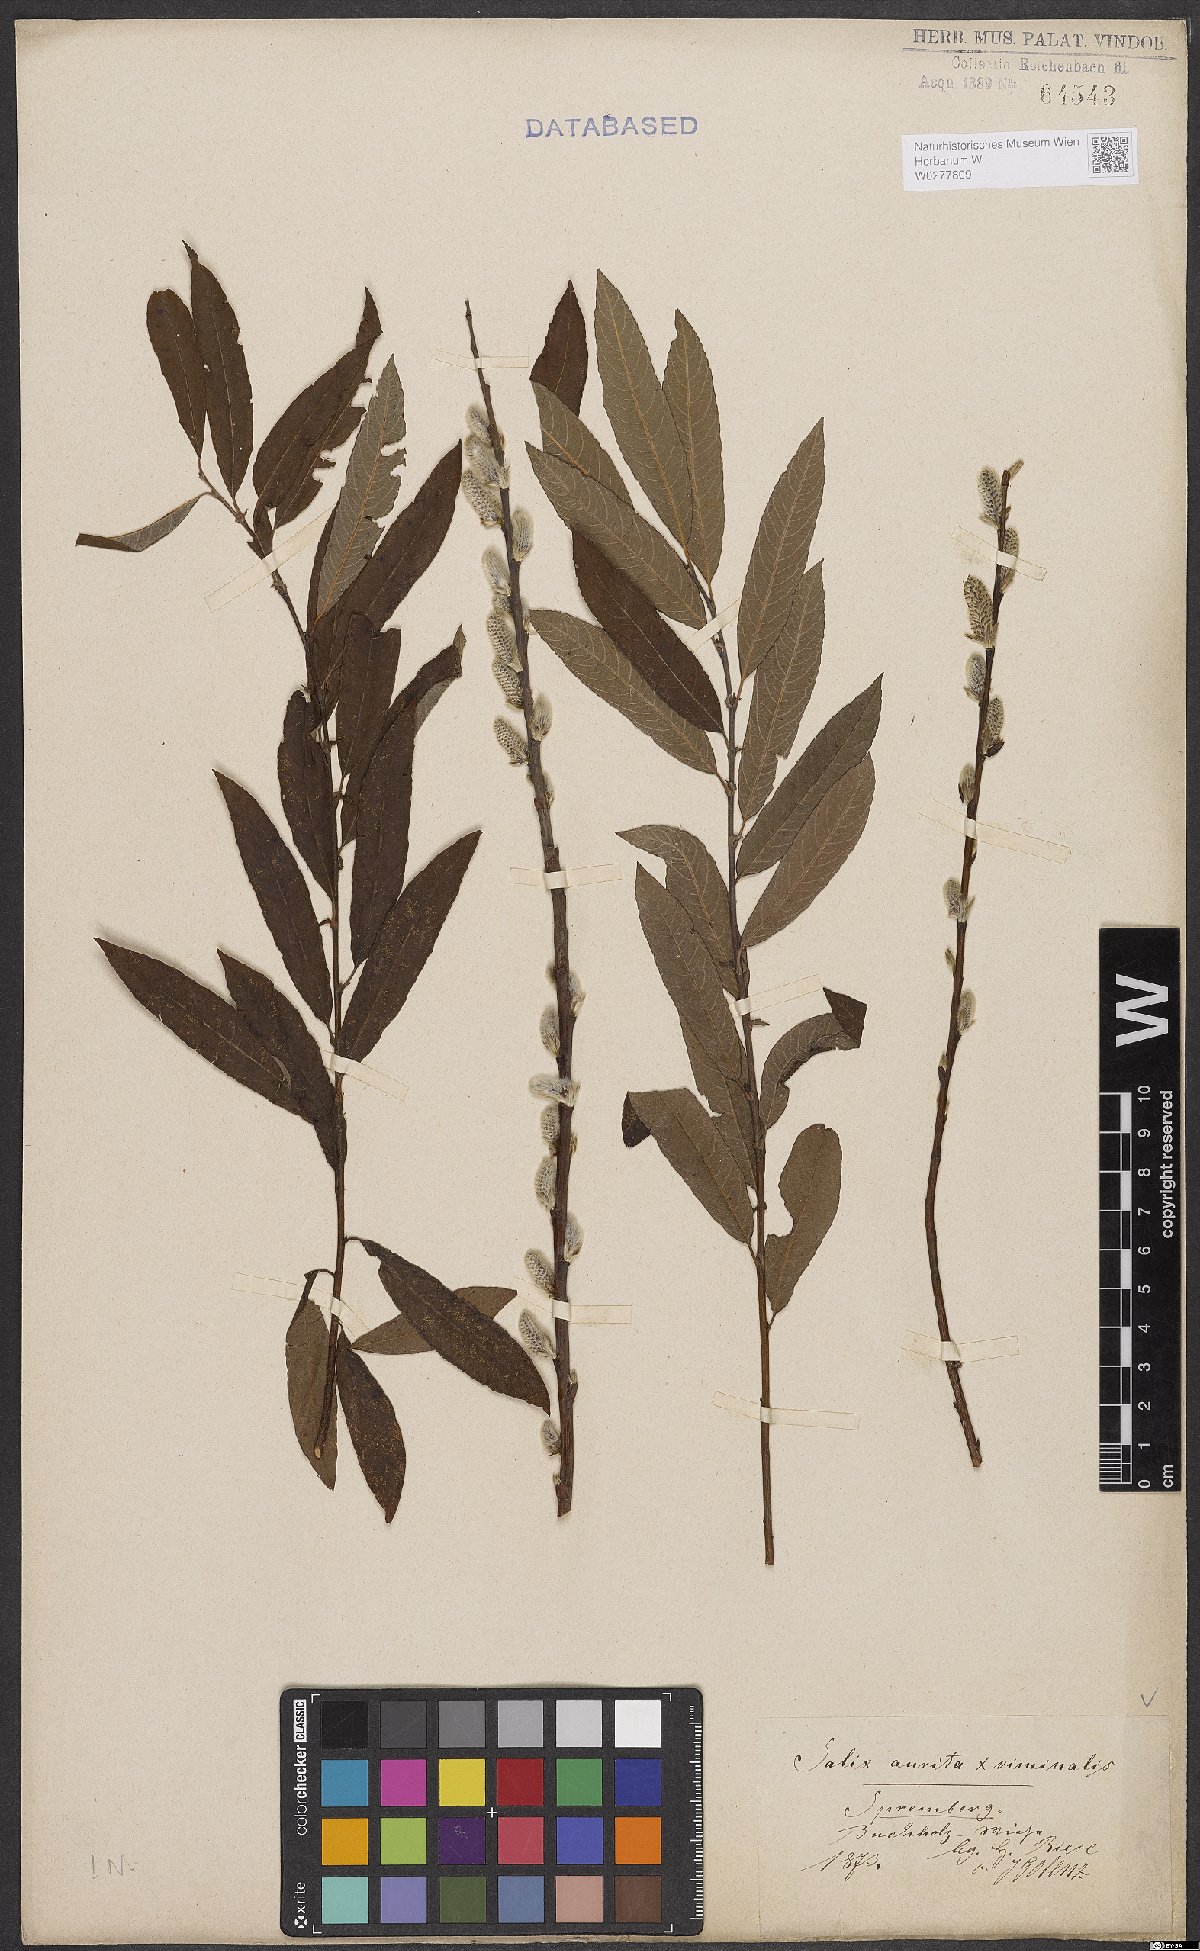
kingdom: Plantae
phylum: Tracheophyta
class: Magnoliopsida
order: Malpighiales
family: Salicaceae
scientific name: Salicaceae
